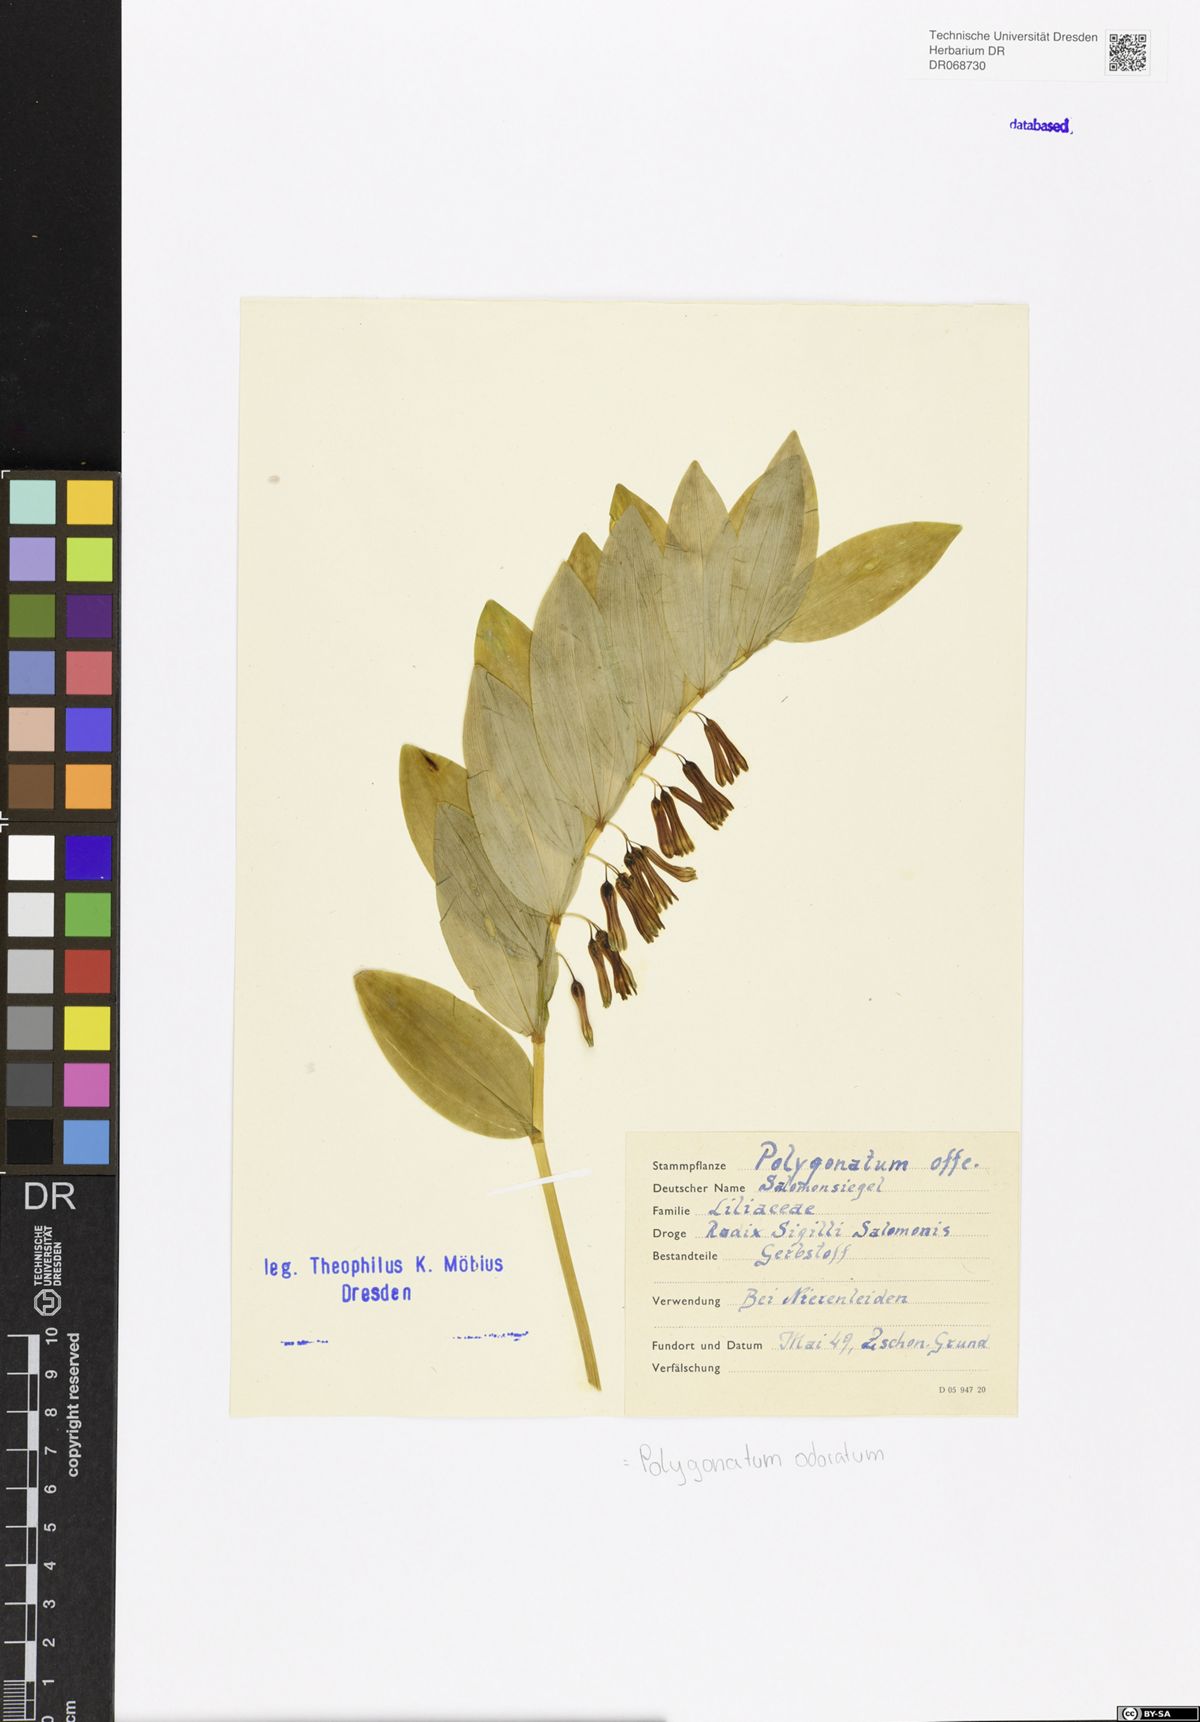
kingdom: Plantae
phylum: Tracheophyta
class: Liliopsida
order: Asparagales
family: Asparagaceae
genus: Polygonatum
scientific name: Polygonatum odoratum
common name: Angular solomon's-seal
